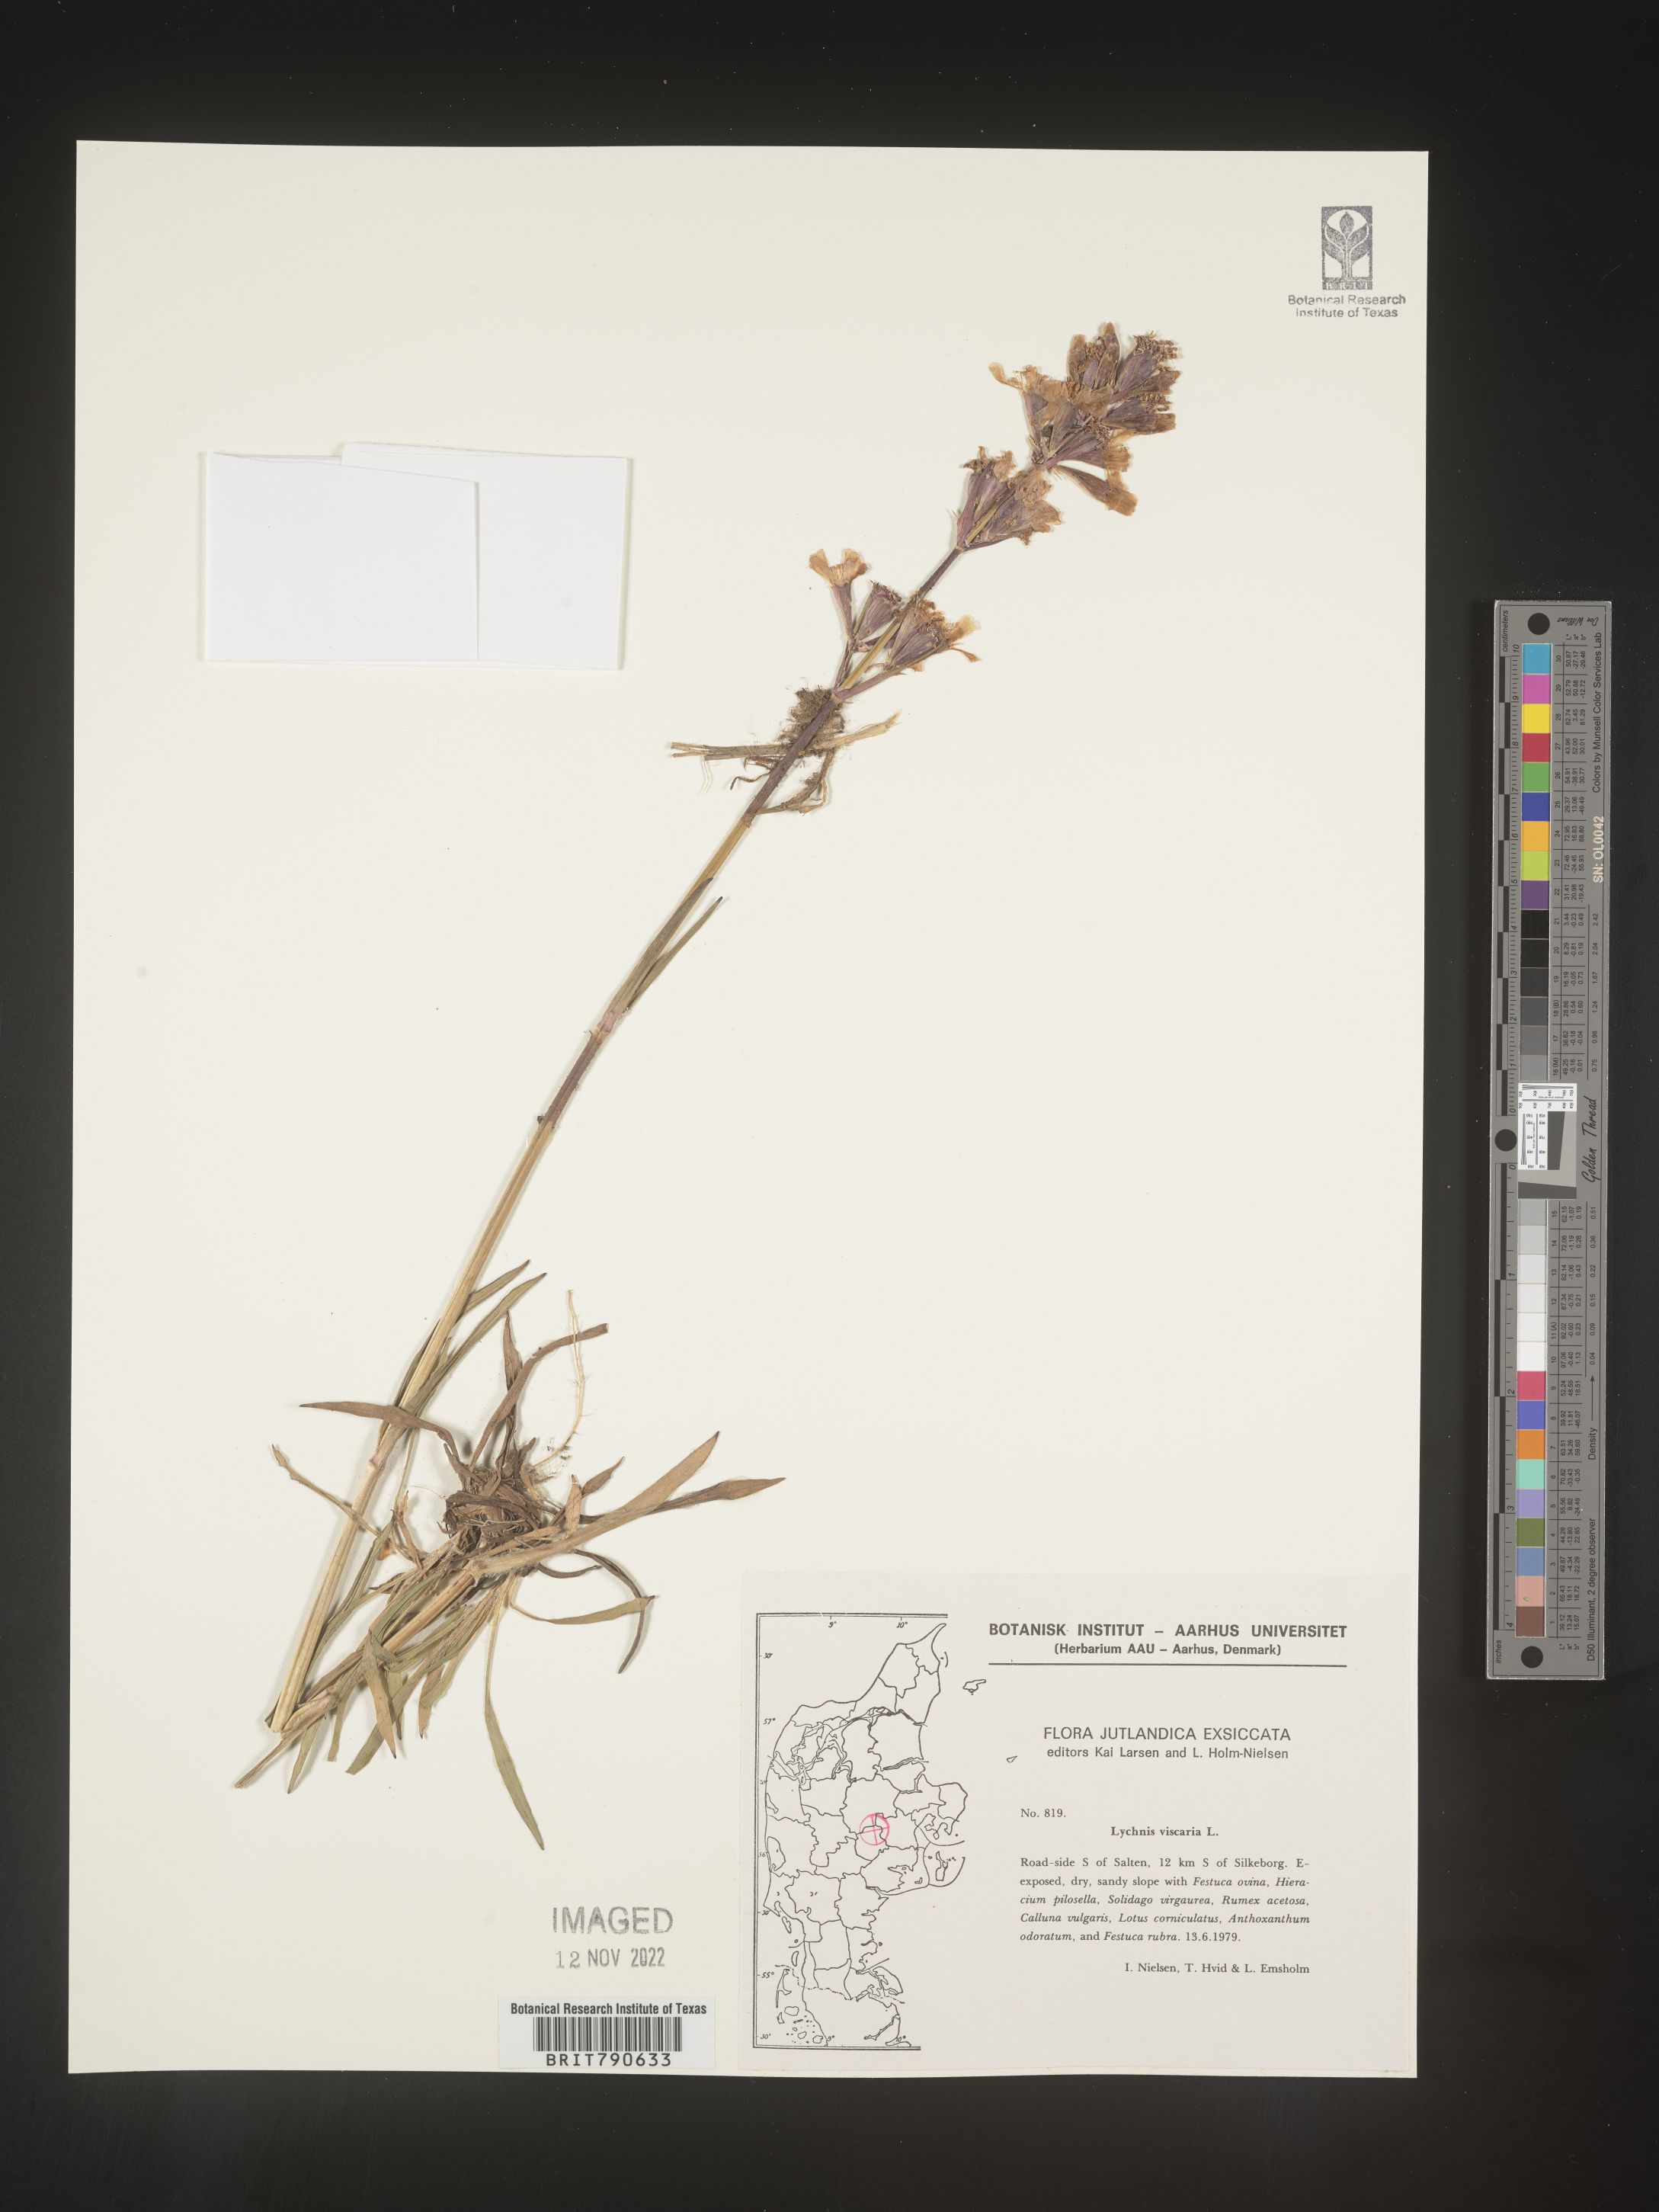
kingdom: Plantae
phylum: Tracheophyta
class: Magnoliopsida
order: Caryophyllales
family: Caryophyllaceae
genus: Silene
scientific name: Silene
